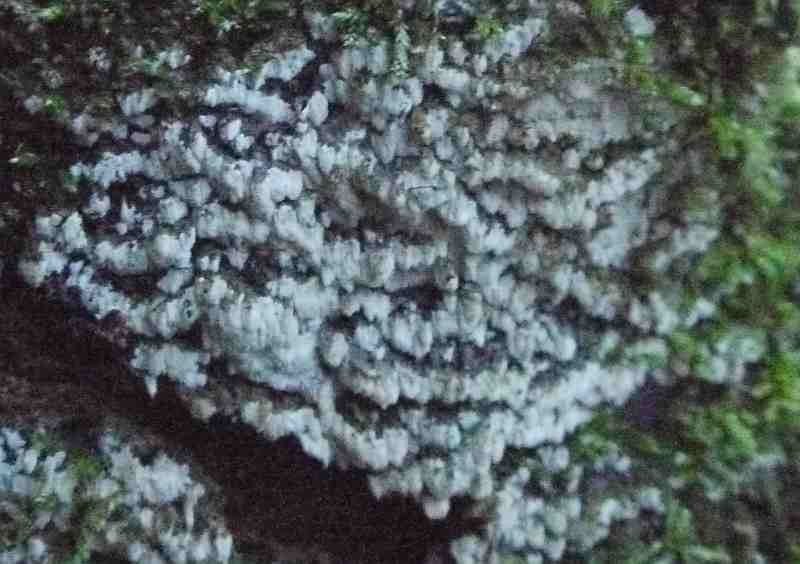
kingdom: Fungi
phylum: Basidiomycota
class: Agaricomycetes
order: Polyporales
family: Meruliaceae
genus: Physisporinus
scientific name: Physisporinus vitreus
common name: mastesvamp
